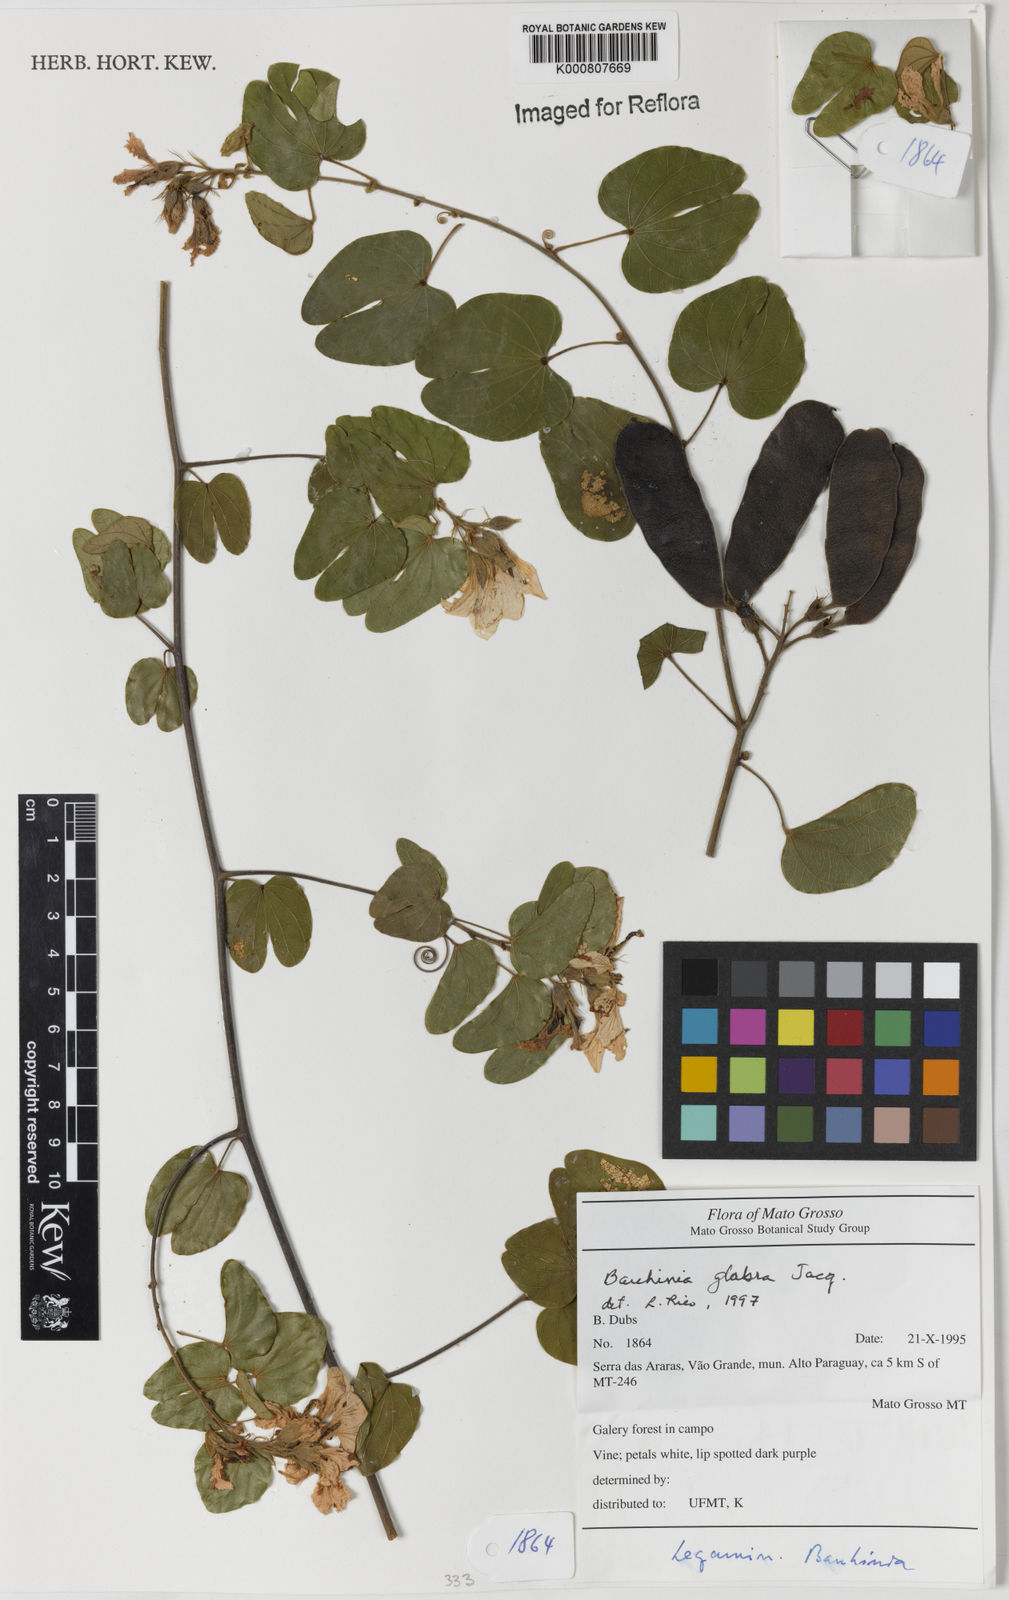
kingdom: Plantae
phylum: Tracheophyta
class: Magnoliopsida
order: Fabales
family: Fabaceae
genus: Schnella
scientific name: Schnella glabra
